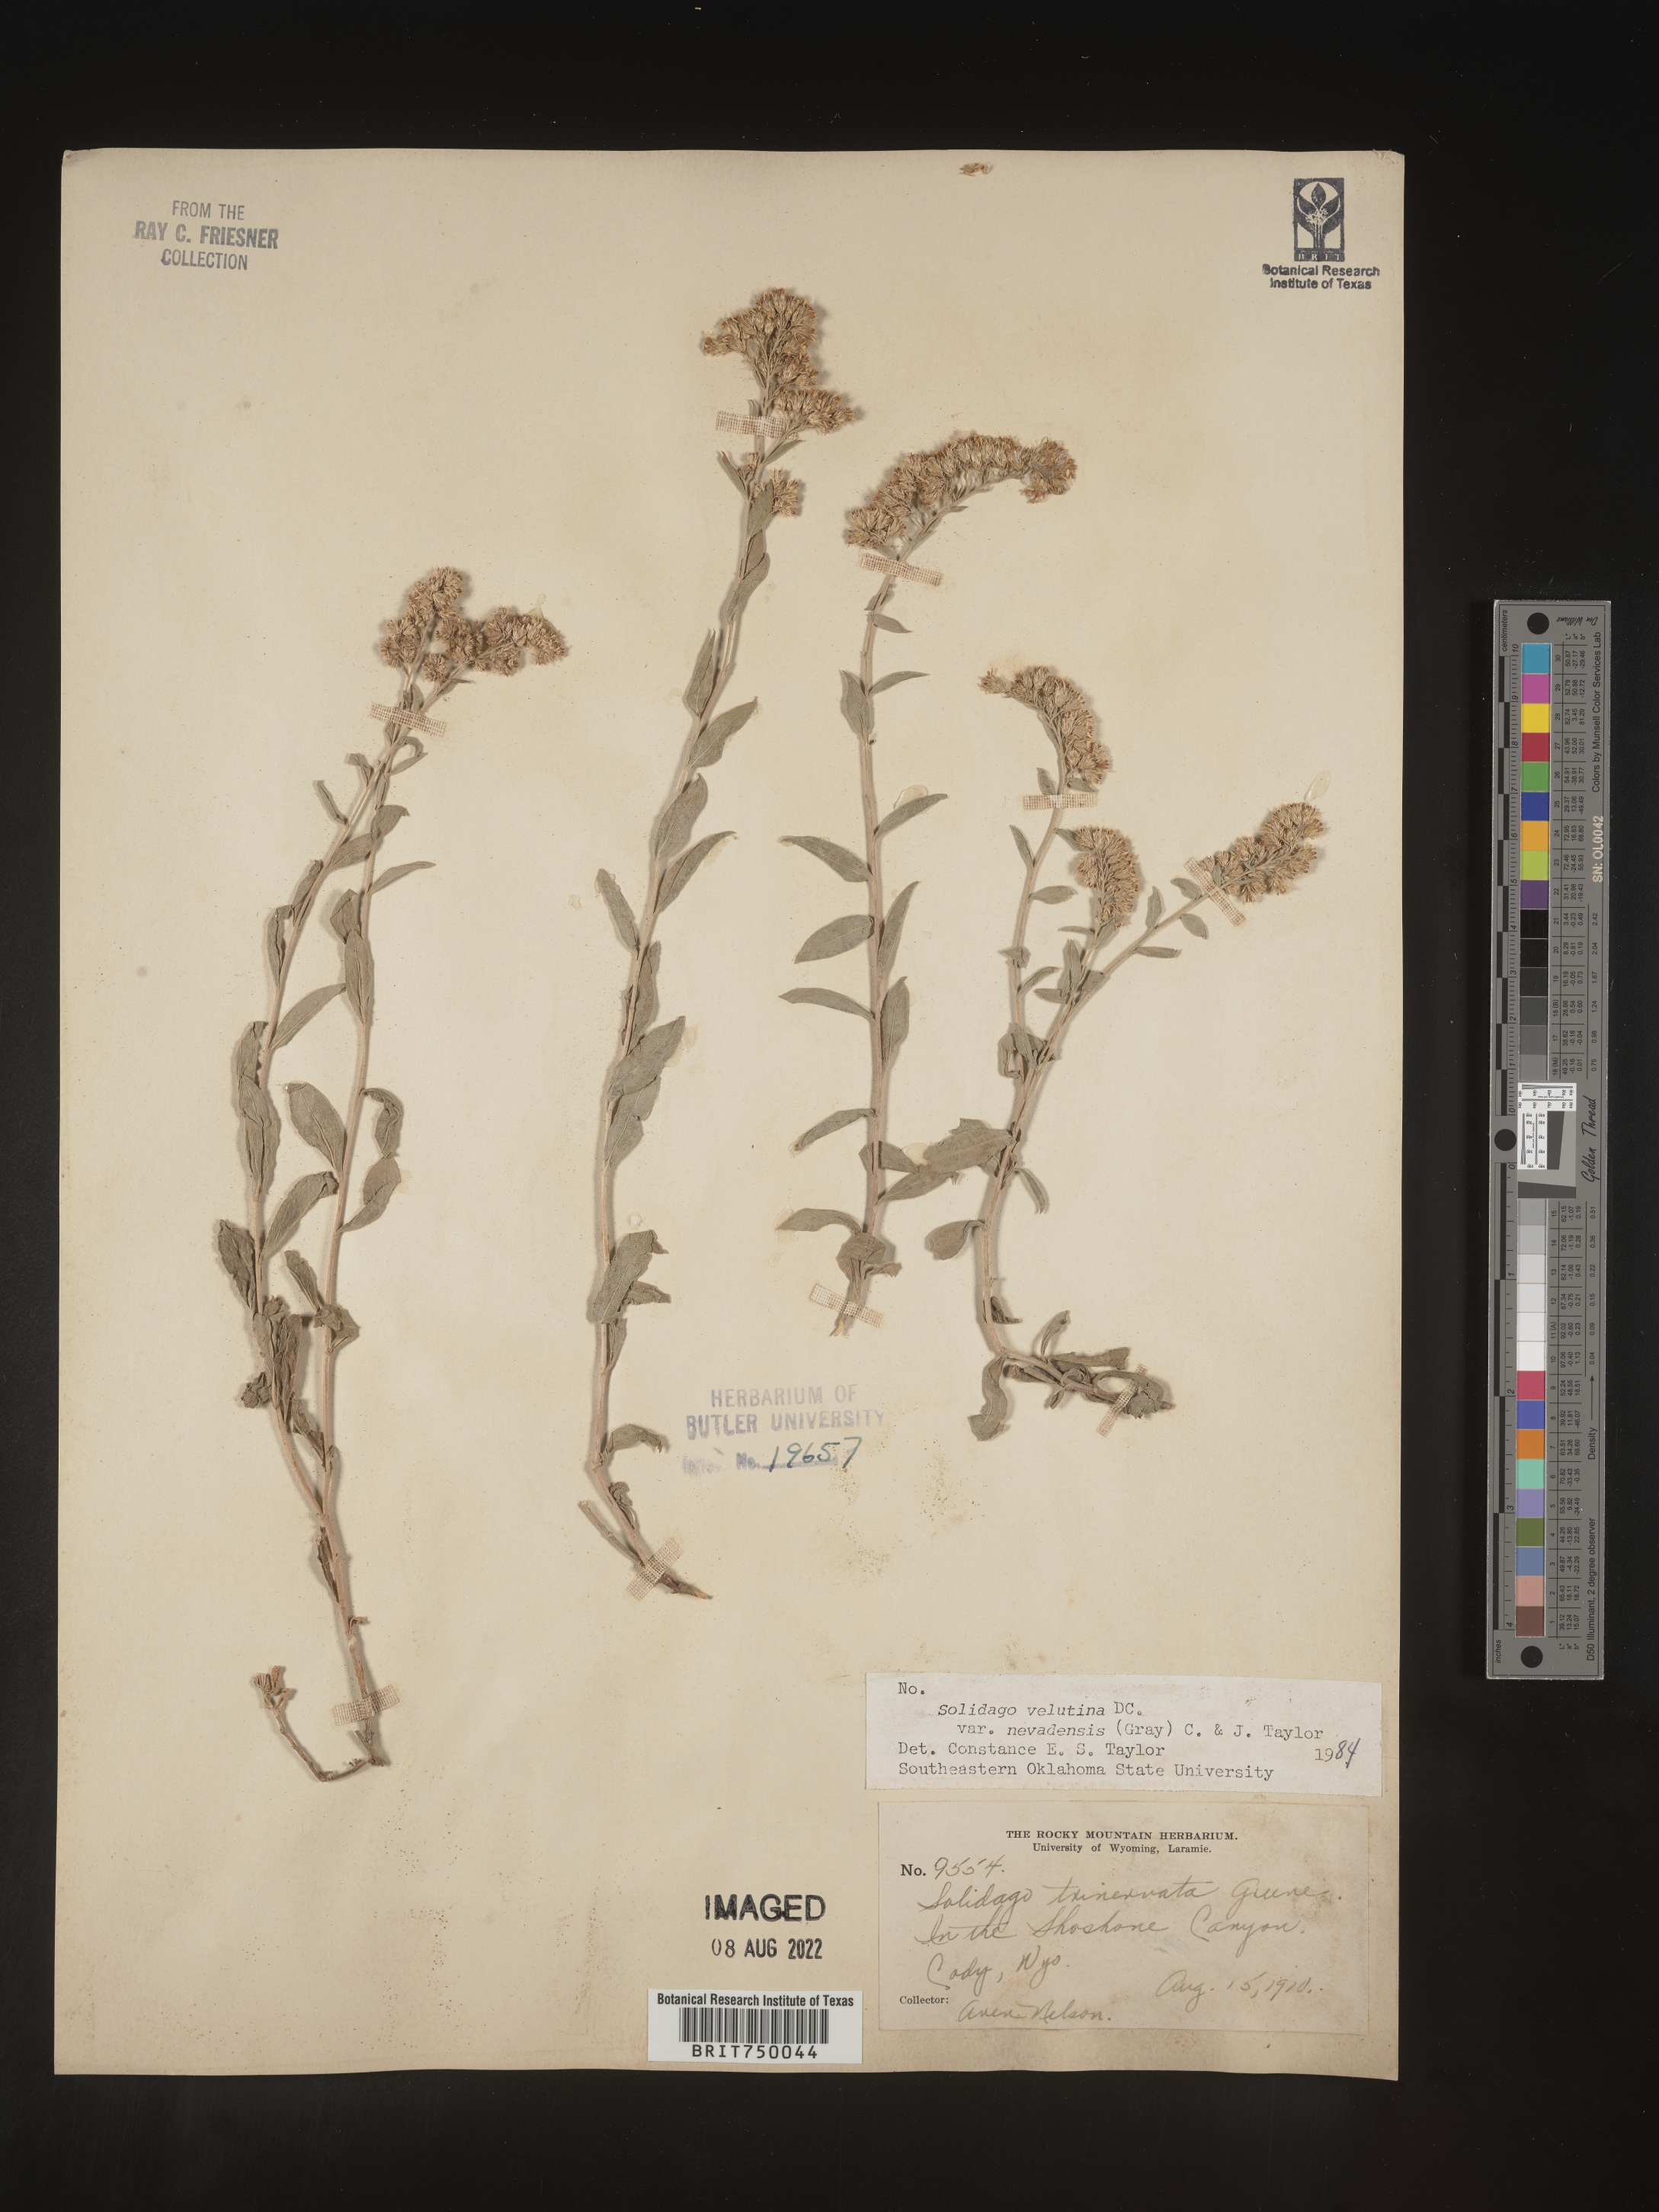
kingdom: Plantae
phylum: Tracheophyta
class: Magnoliopsida
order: Asterales
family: Asteraceae
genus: Solidago
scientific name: Solidago garrettii
